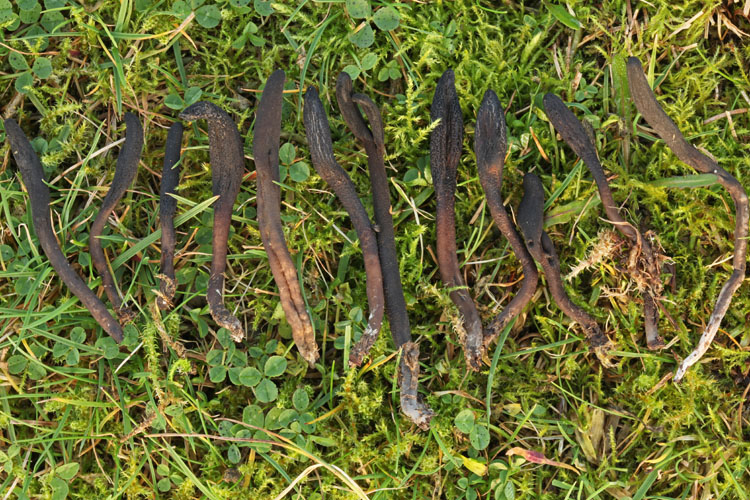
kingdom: Fungi
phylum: Ascomycota
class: Geoglossomycetes
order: Geoglossales
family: Geoglossaceae
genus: Geoglossum
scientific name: Geoglossum fallax
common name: småskællet jordtunge
